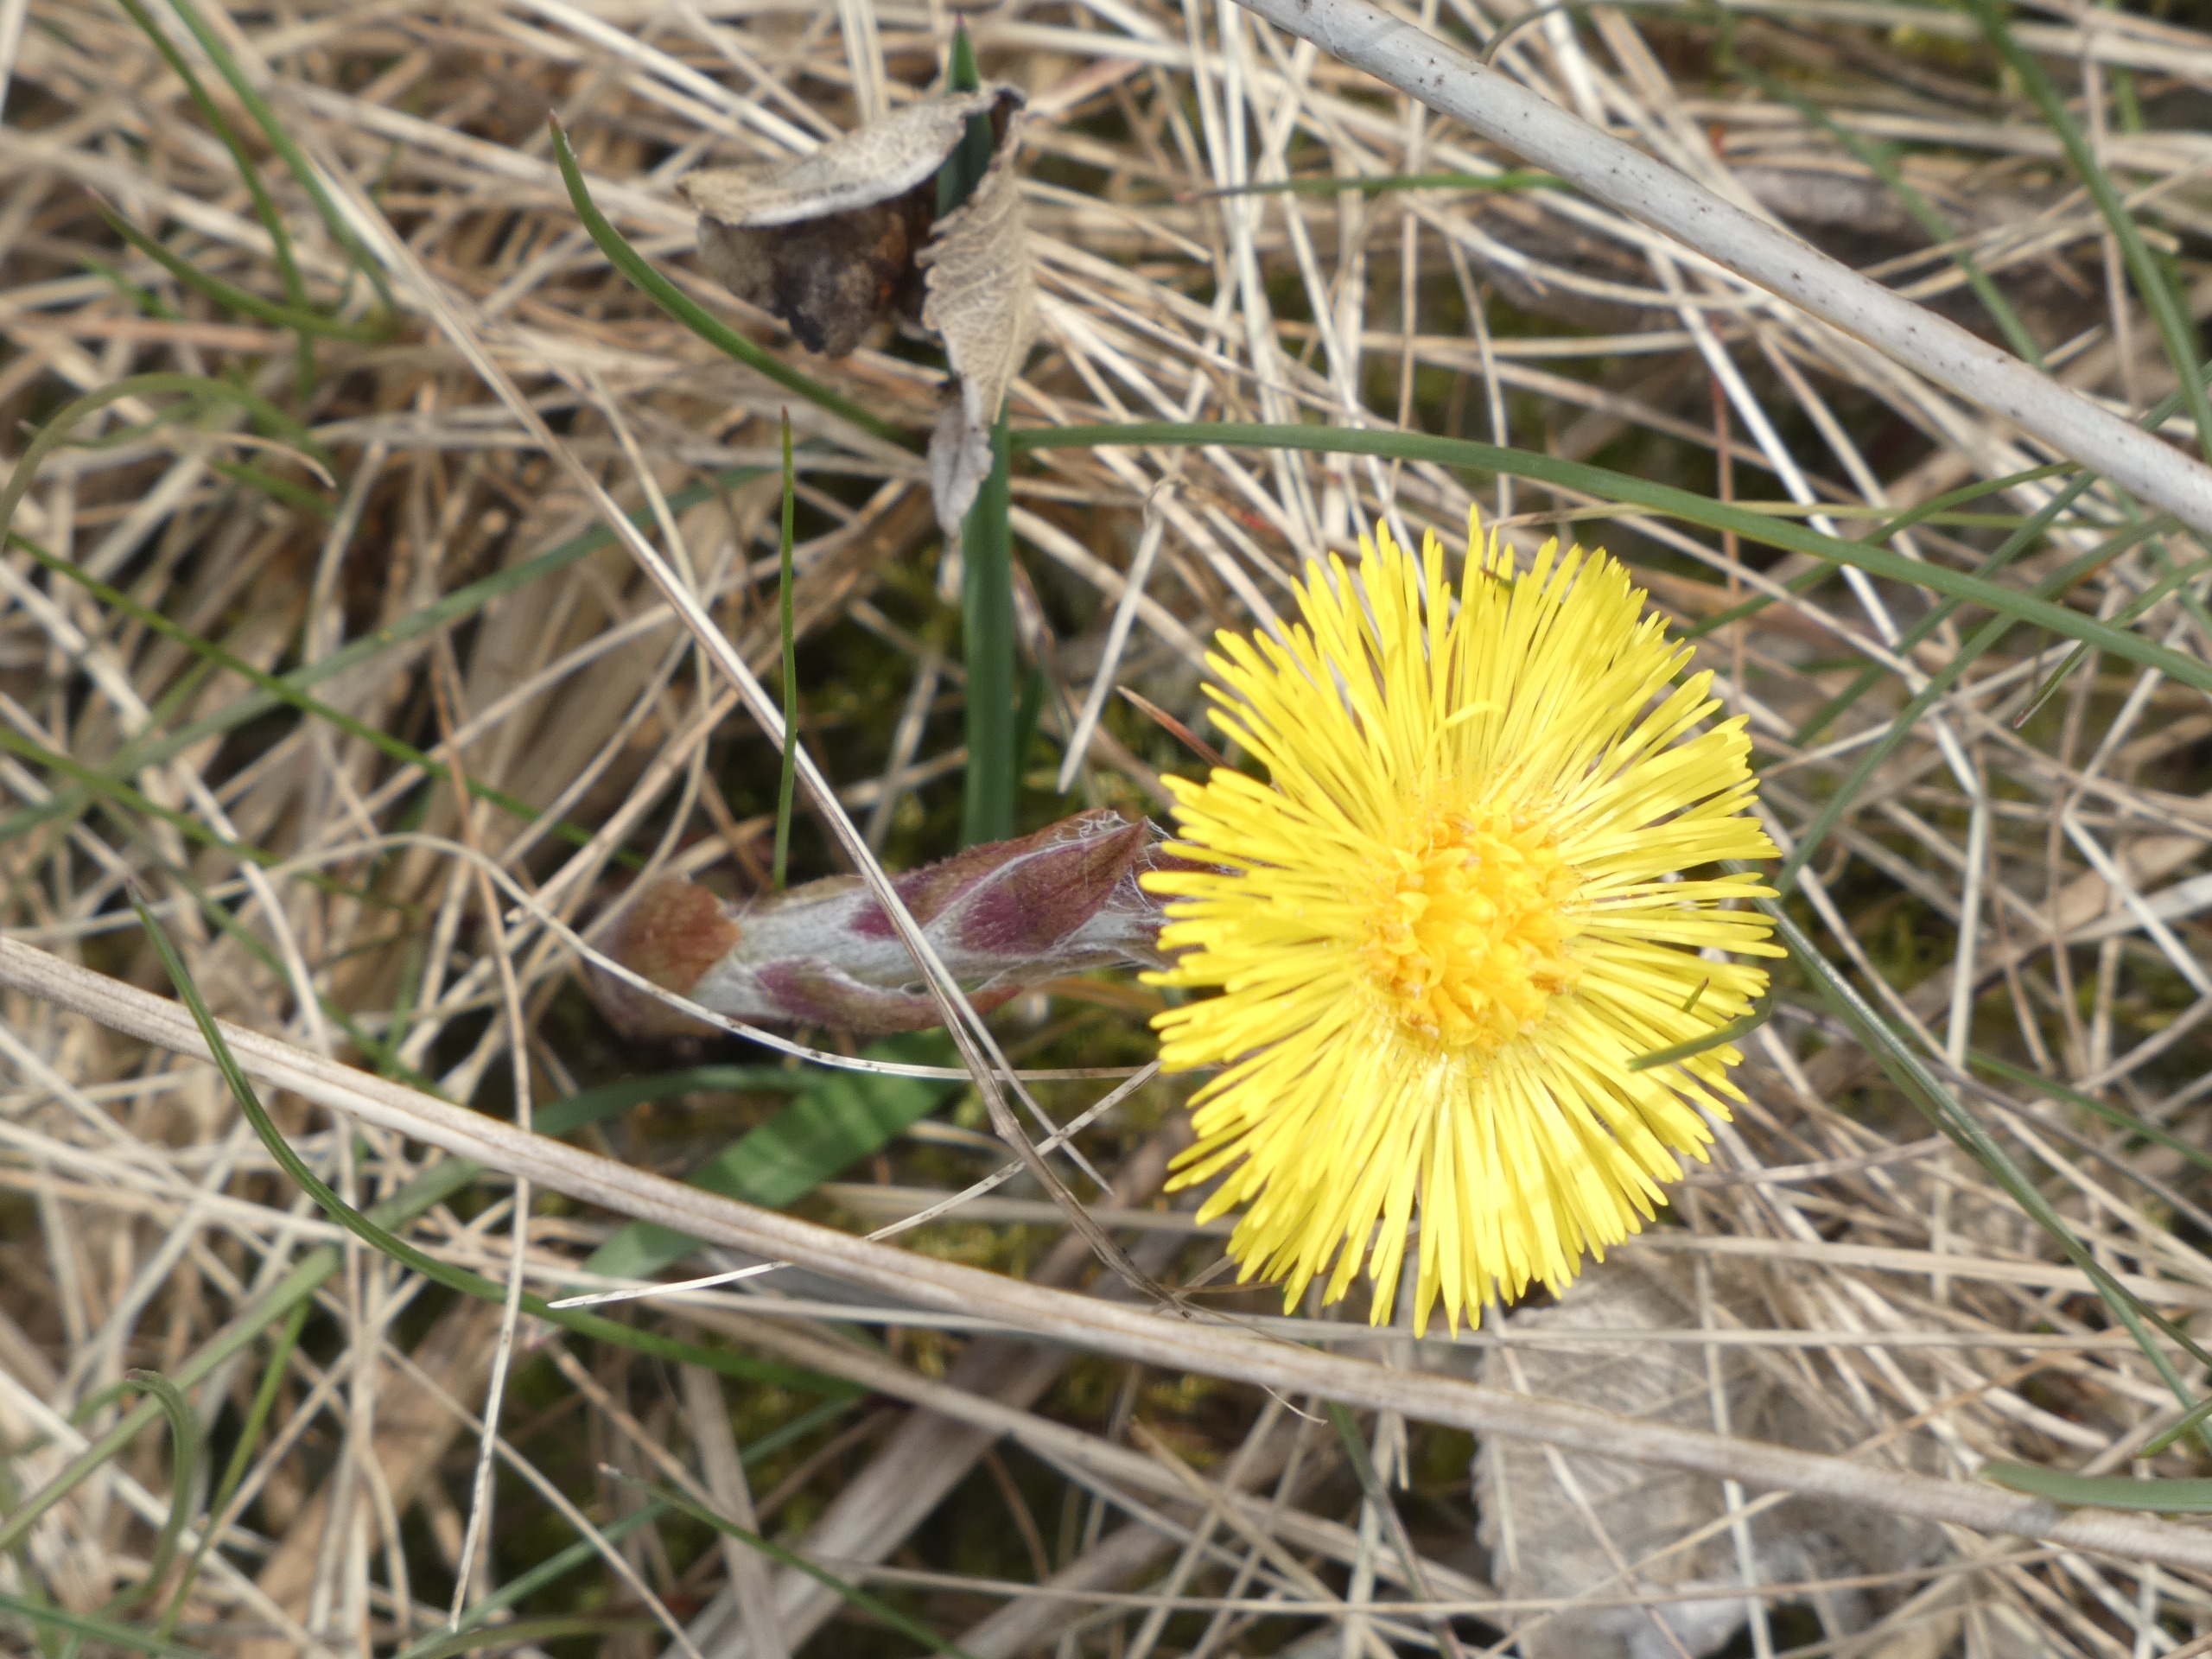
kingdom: Plantae
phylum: Tracheophyta
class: Magnoliopsida
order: Asterales
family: Asteraceae
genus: Tussilago
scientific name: Tussilago farfara
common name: Følfod
